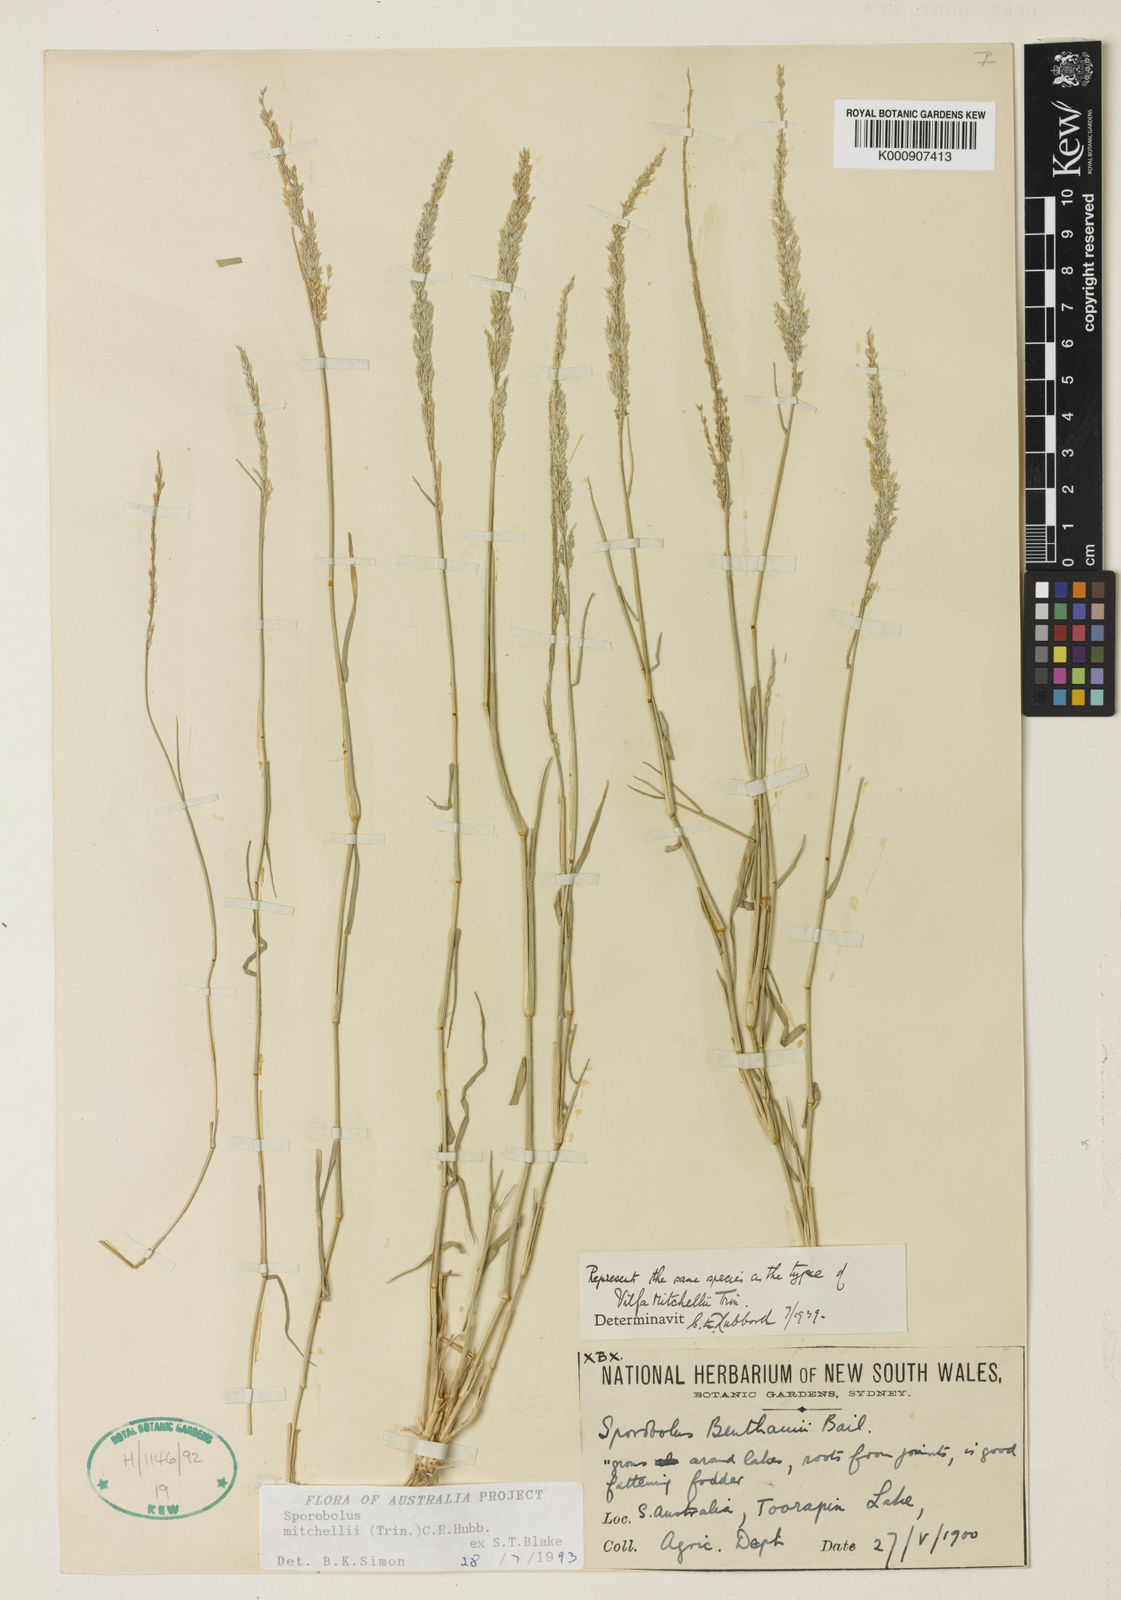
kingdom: Plantae
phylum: Tracheophyta
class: Liliopsida
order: Poales
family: Poaceae
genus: Sporobolus
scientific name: Sporobolus mitchellii
